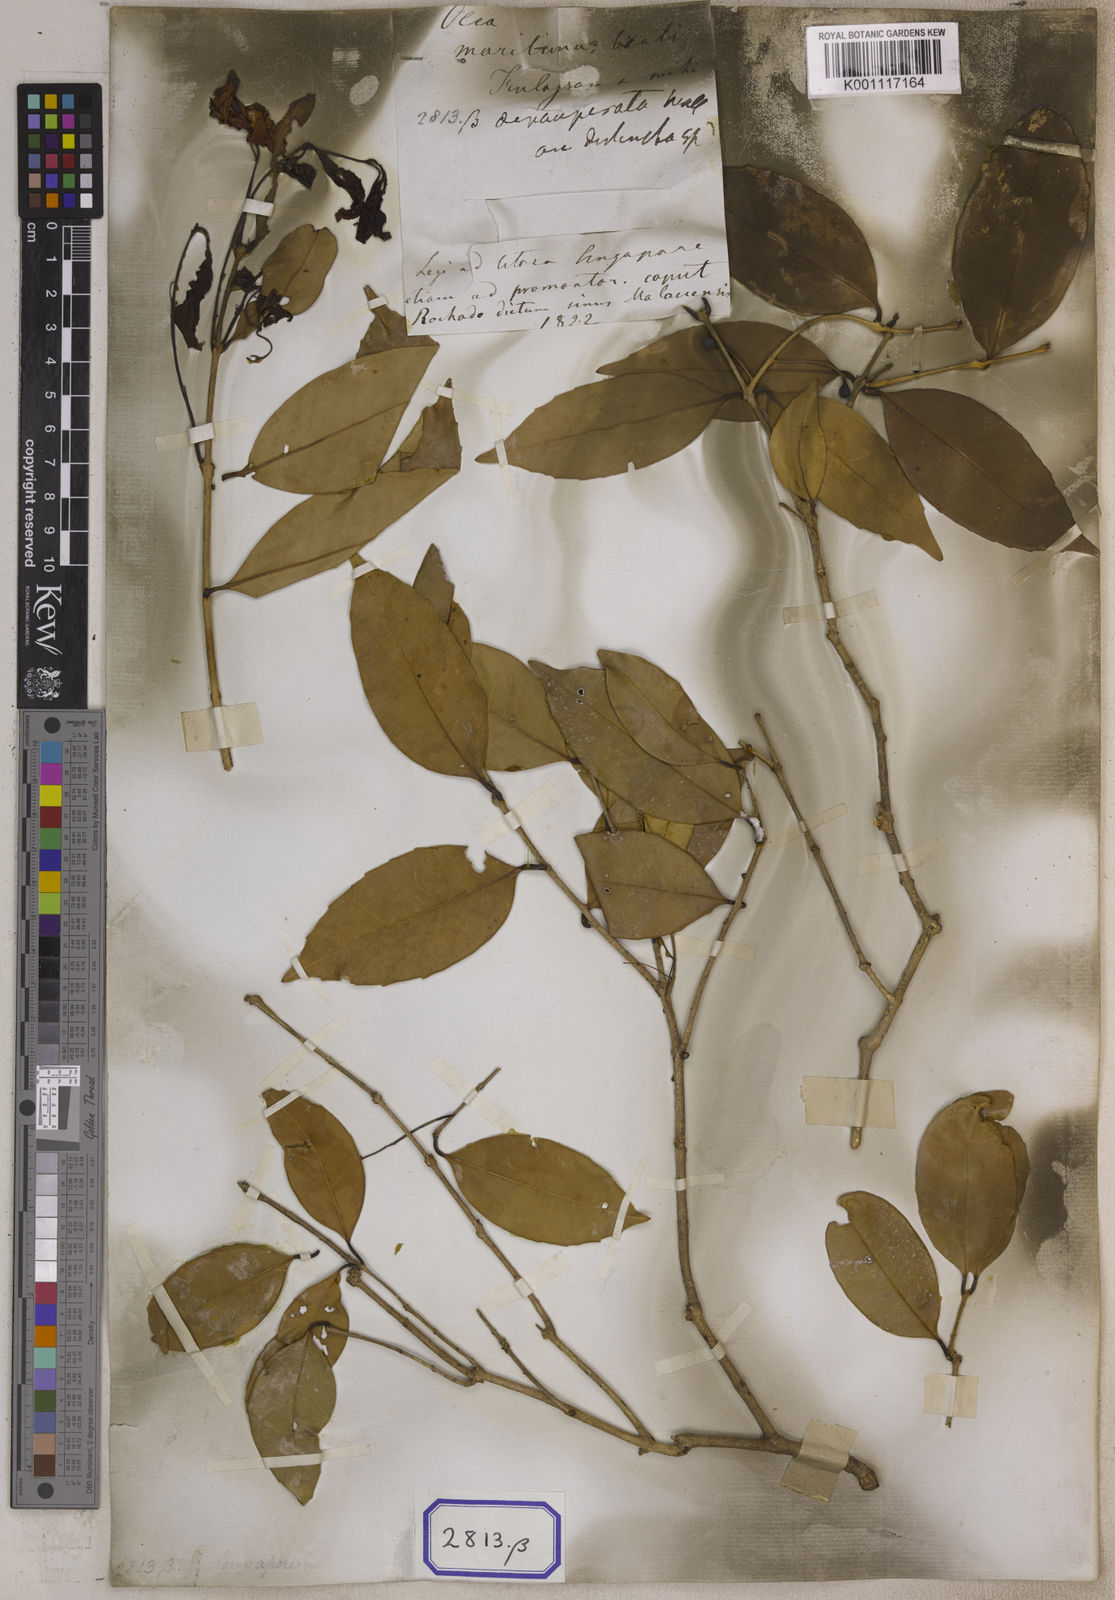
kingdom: Plantae
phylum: Tracheophyta
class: Magnoliopsida
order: Lamiales
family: Oleaceae
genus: Olea
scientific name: Olea
